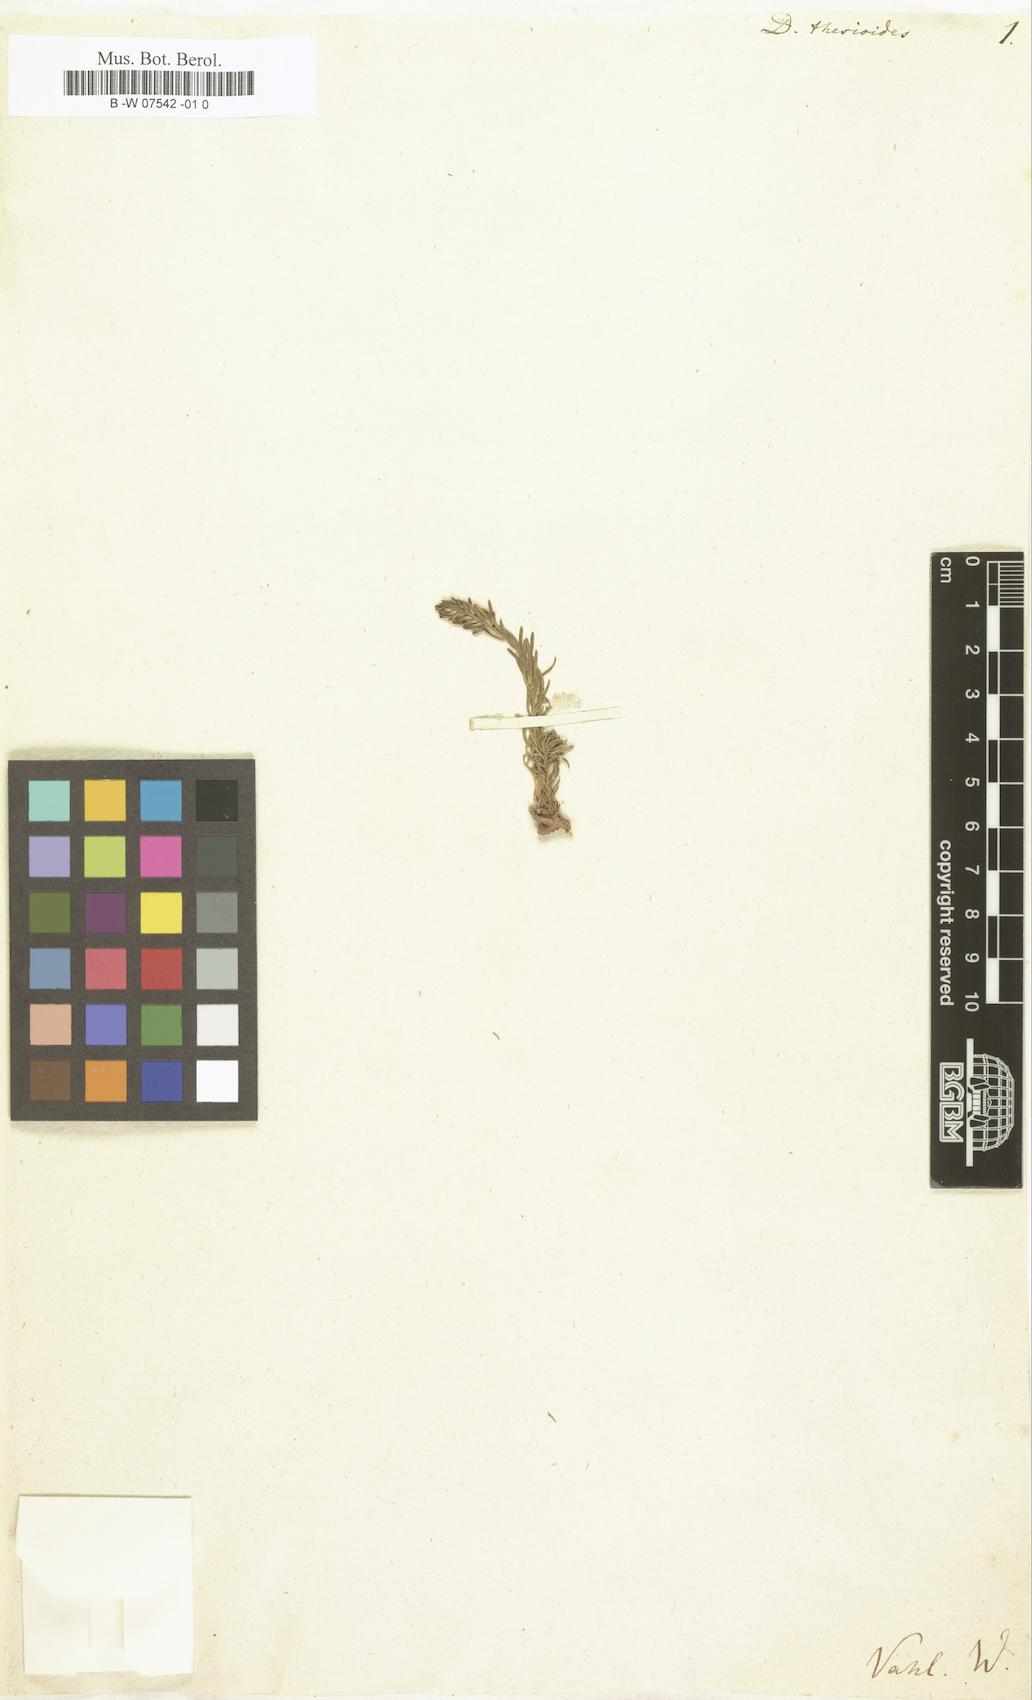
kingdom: Plantae
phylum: Tracheophyta
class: Magnoliopsida
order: Malvales
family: Thymelaeaceae
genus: Thymelaea
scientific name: Thymelaea pubescens
